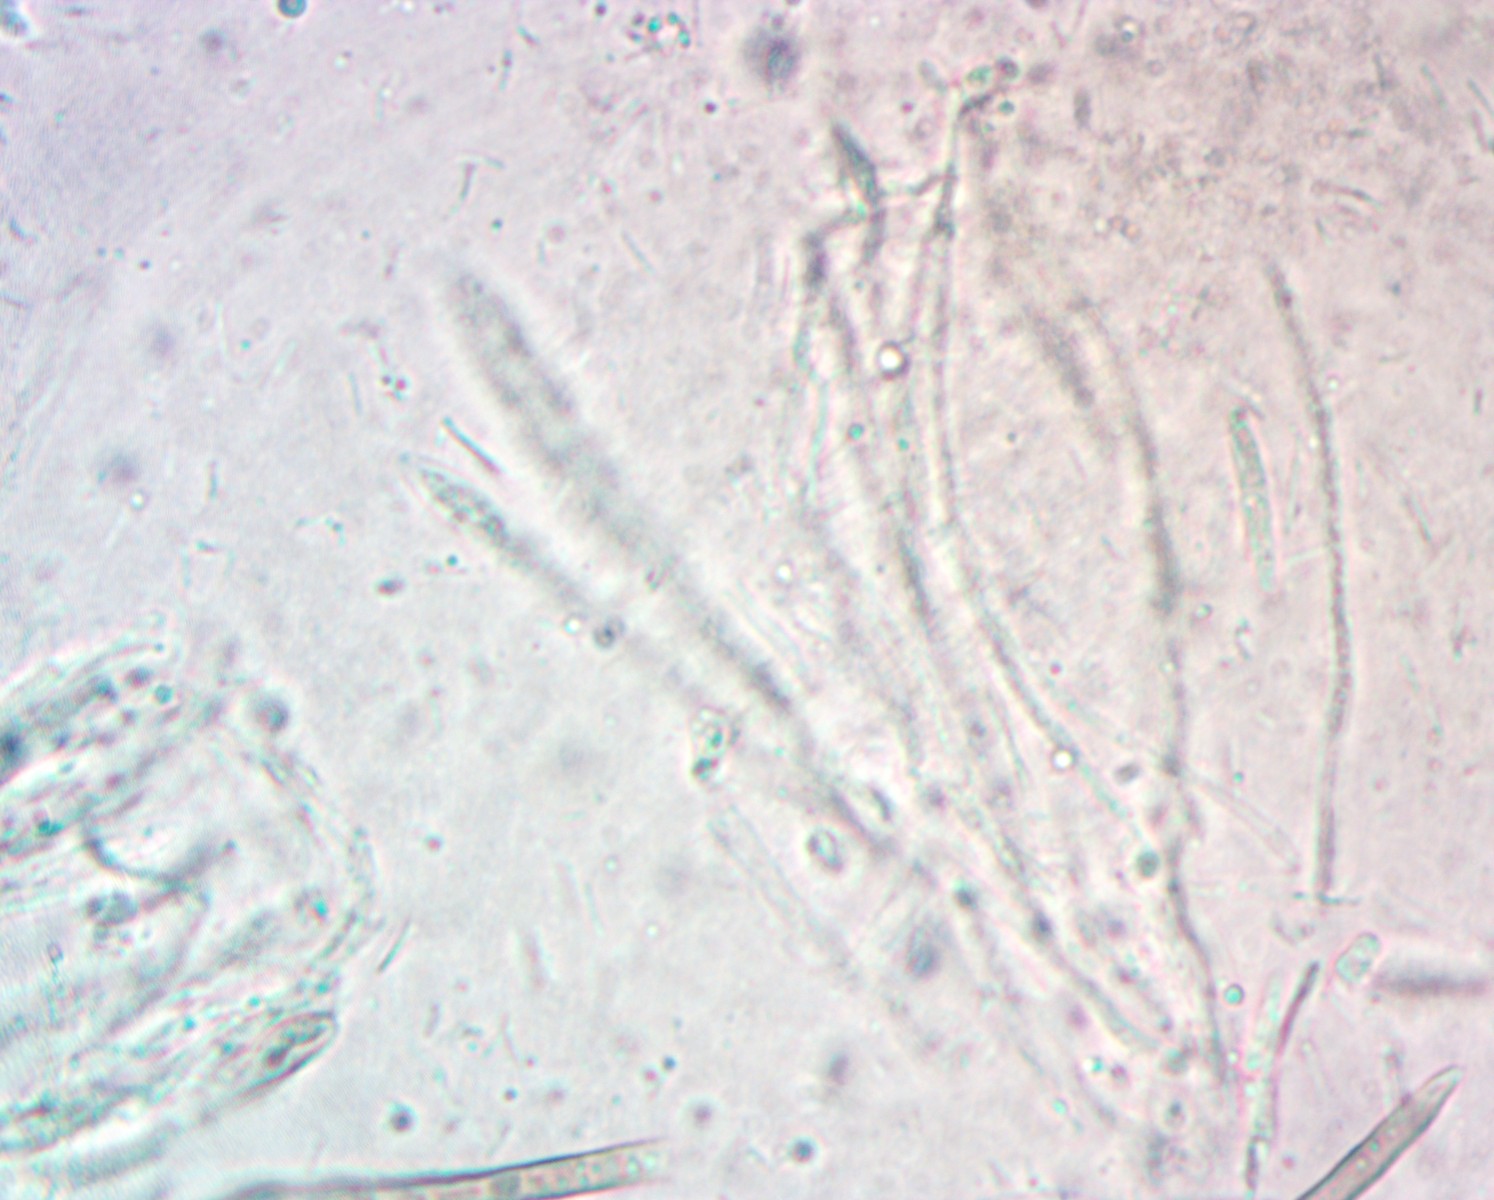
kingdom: Fungi
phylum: Ascomycota
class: Leotiomycetes
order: Helotiales
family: Helotiaceae
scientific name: Helotiaceae
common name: stilkskivefamilien
